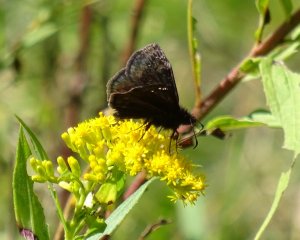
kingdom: Animalia
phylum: Arthropoda
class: Insecta
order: Lepidoptera
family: Hesperiidae
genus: Gesta
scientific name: Gesta
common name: Wild Indigo Duskywing
